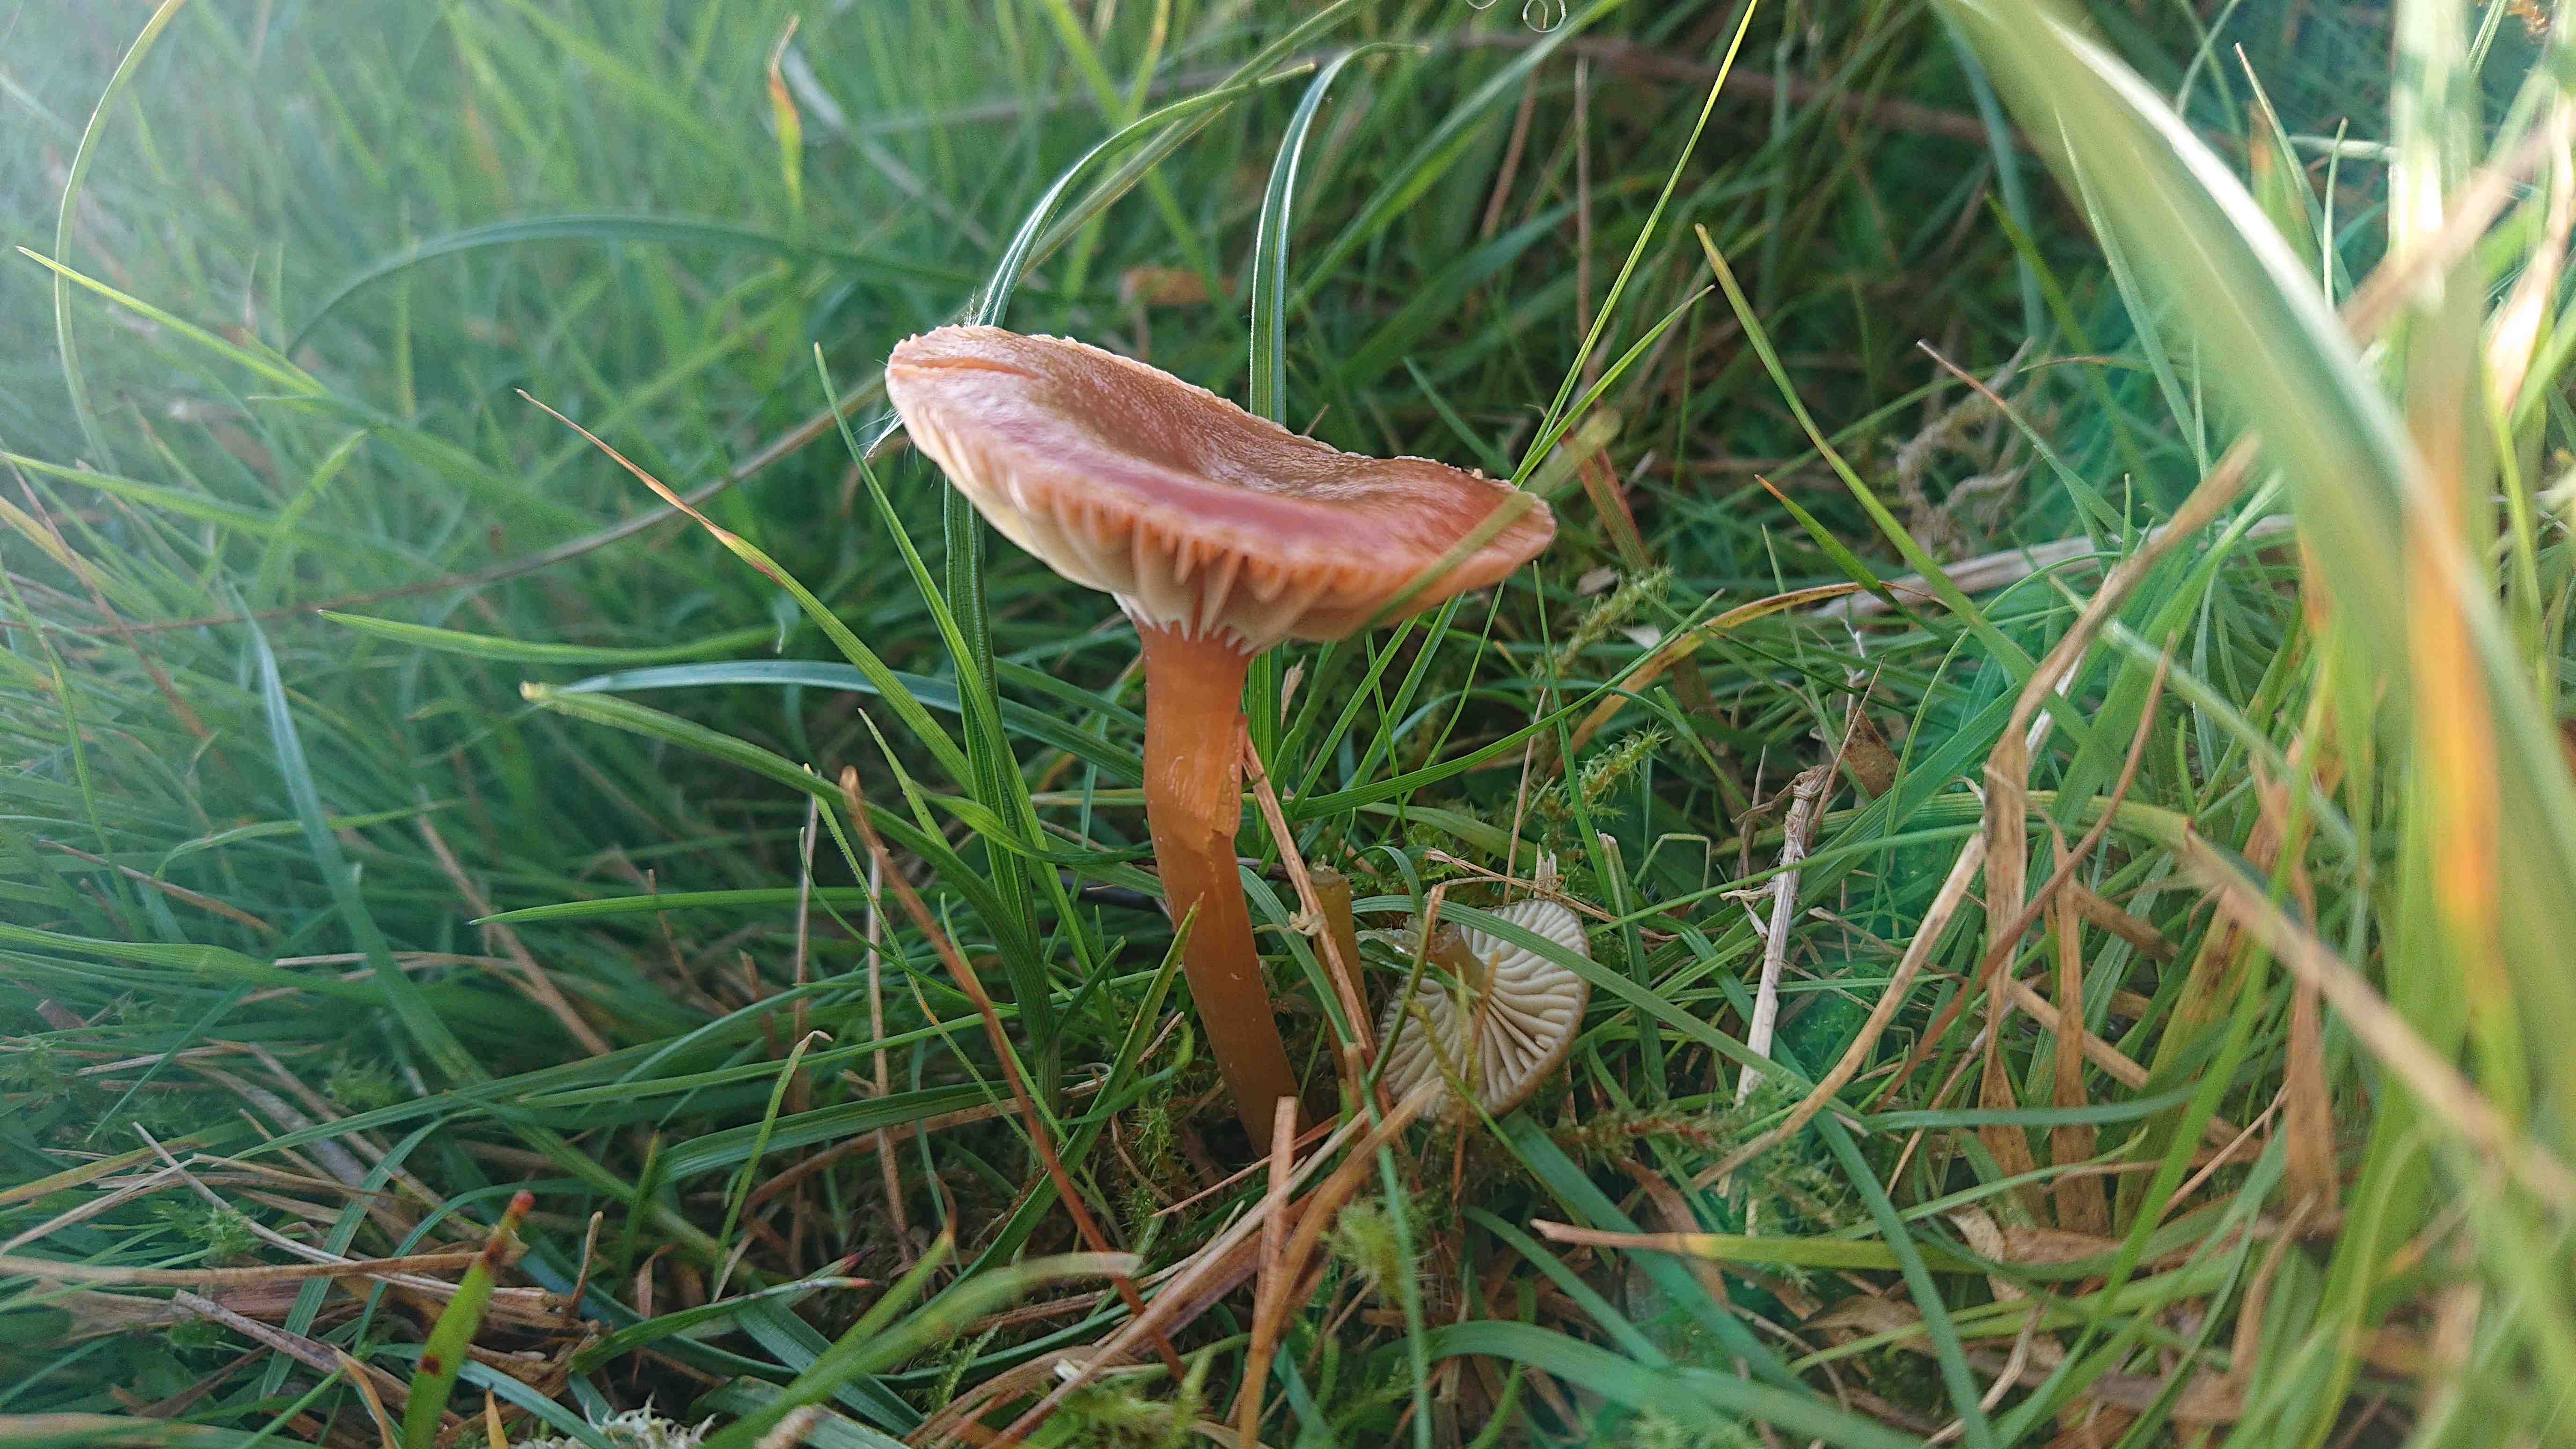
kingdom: Fungi
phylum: Basidiomycota
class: Agaricomycetes
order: Agaricales
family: Hygrophoraceae
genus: Gliophorus
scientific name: Gliophorus laetus
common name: brusk-vokshat
